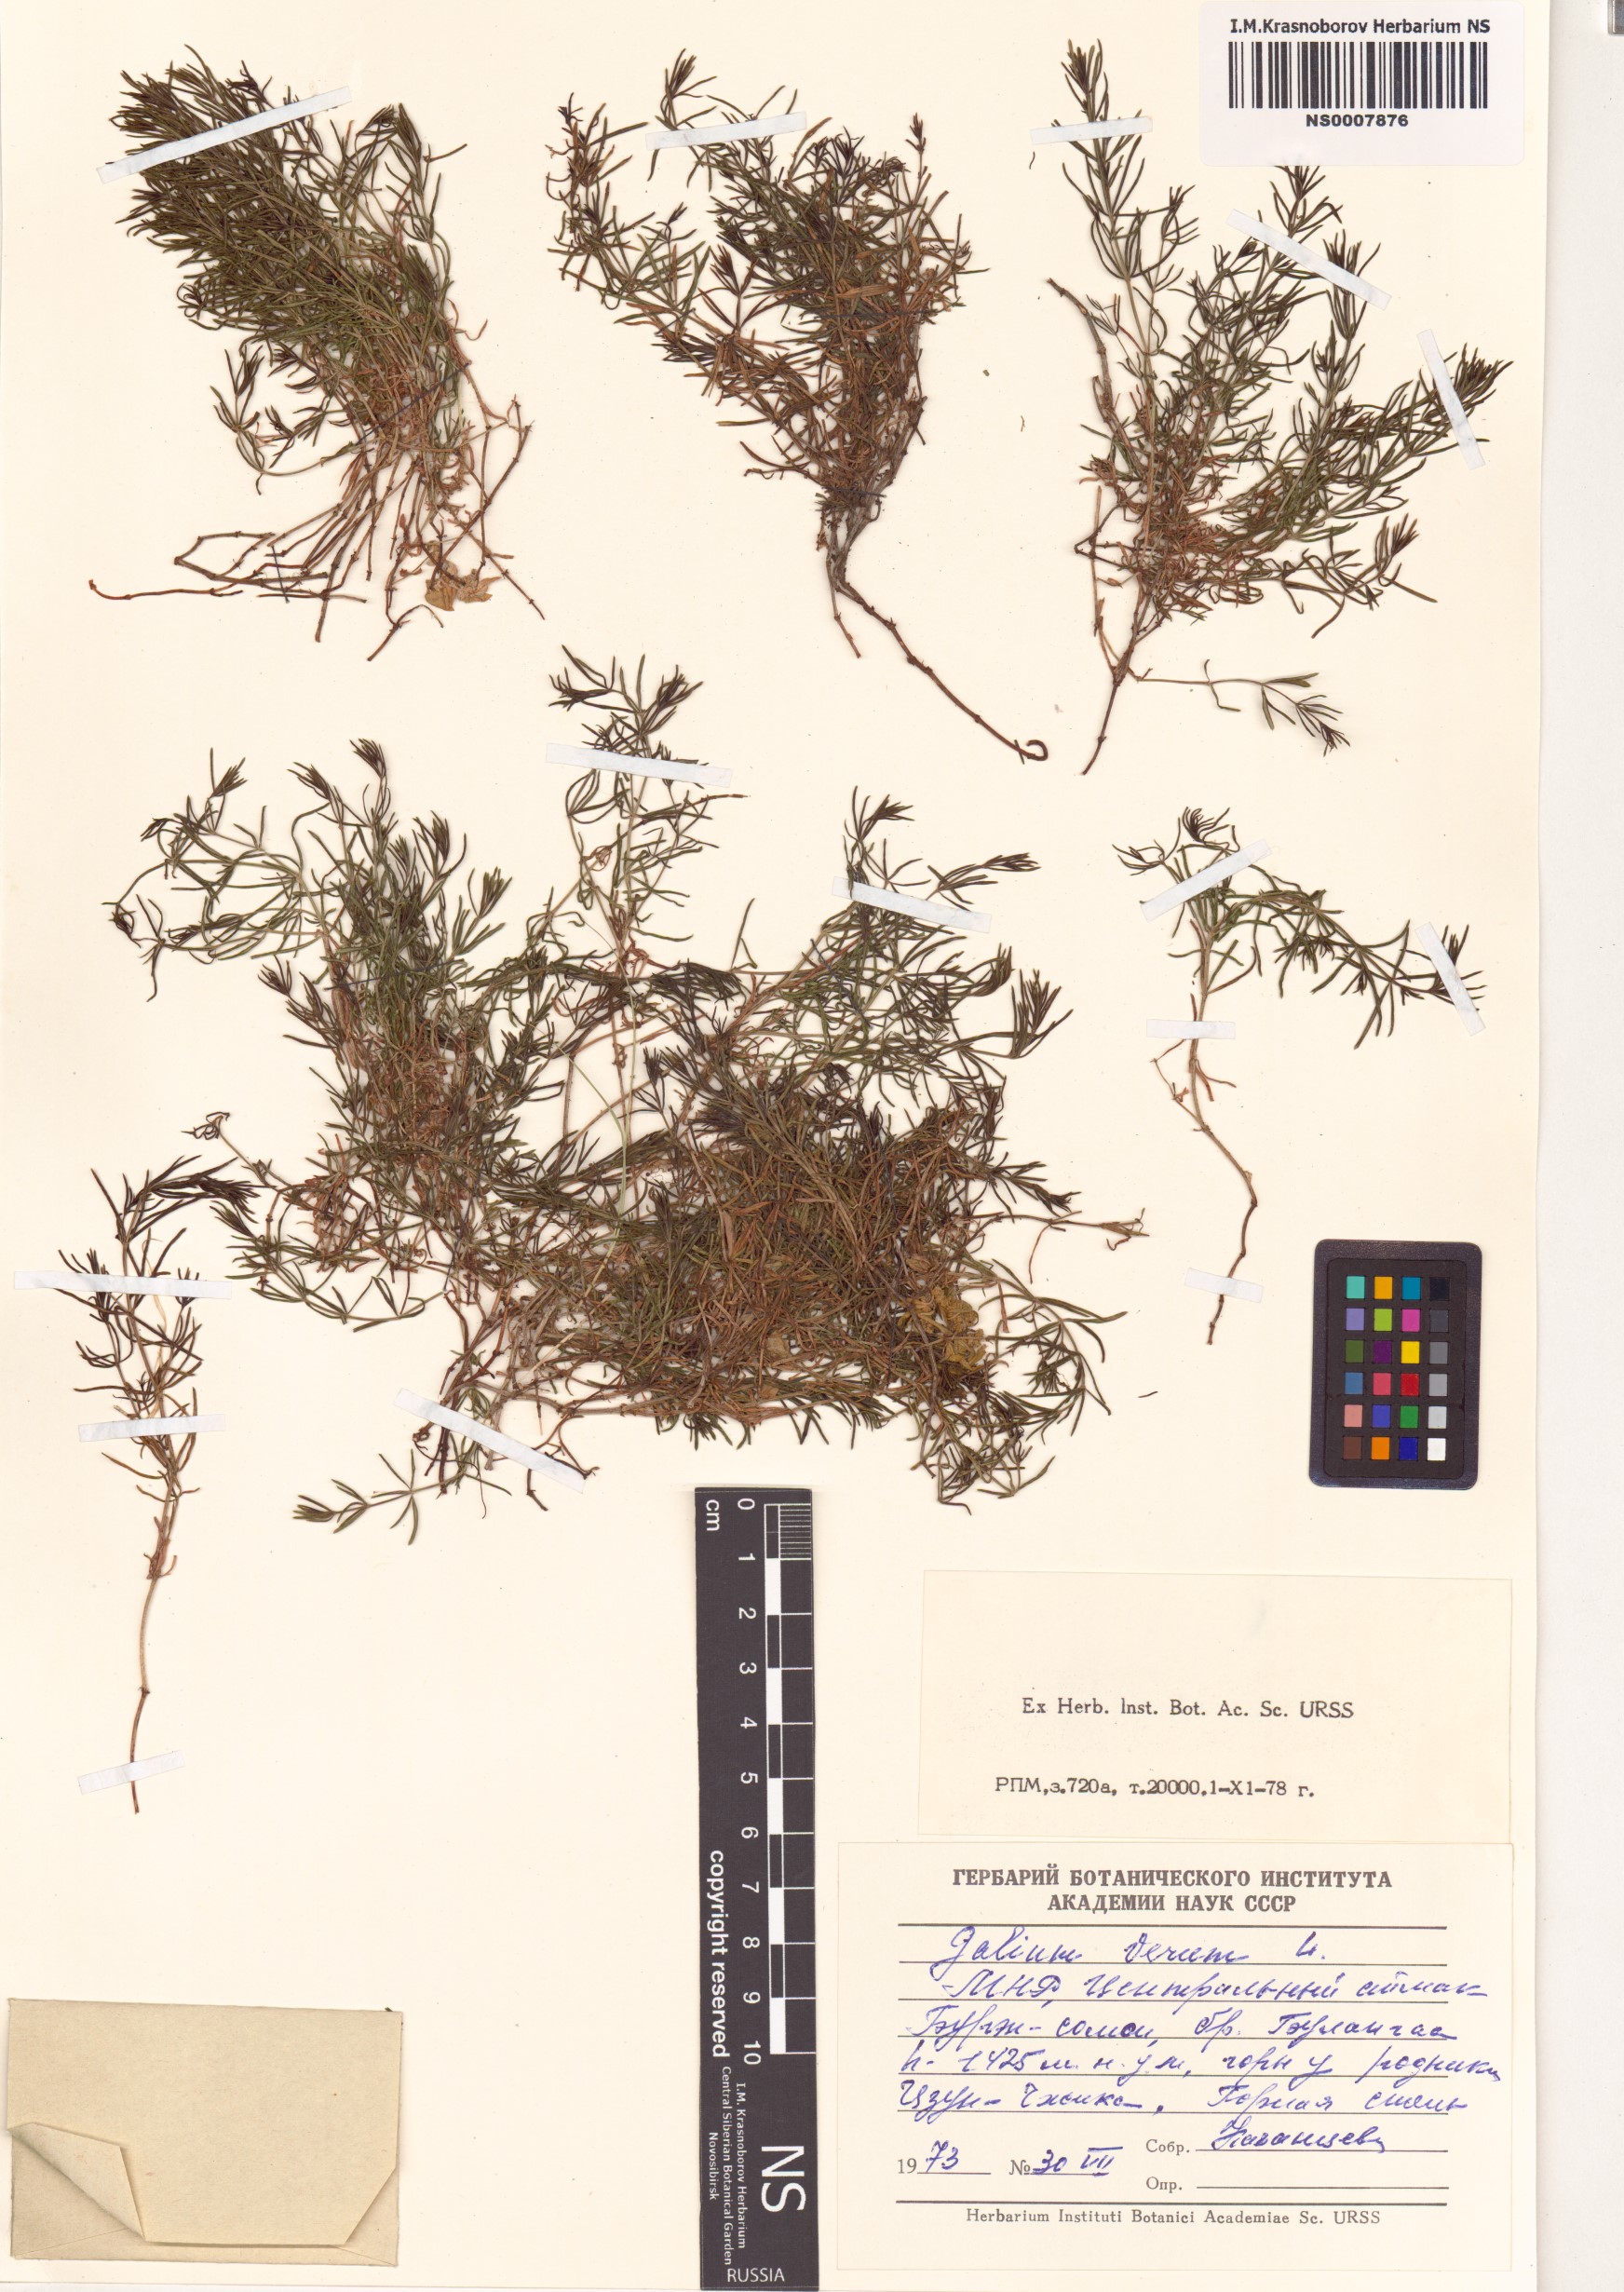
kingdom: Plantae
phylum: Tracheophyta
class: Magnoliopsida
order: Gentianales
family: Rubiaceae
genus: Galium
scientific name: Galium verum
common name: Lady's bedstraw
